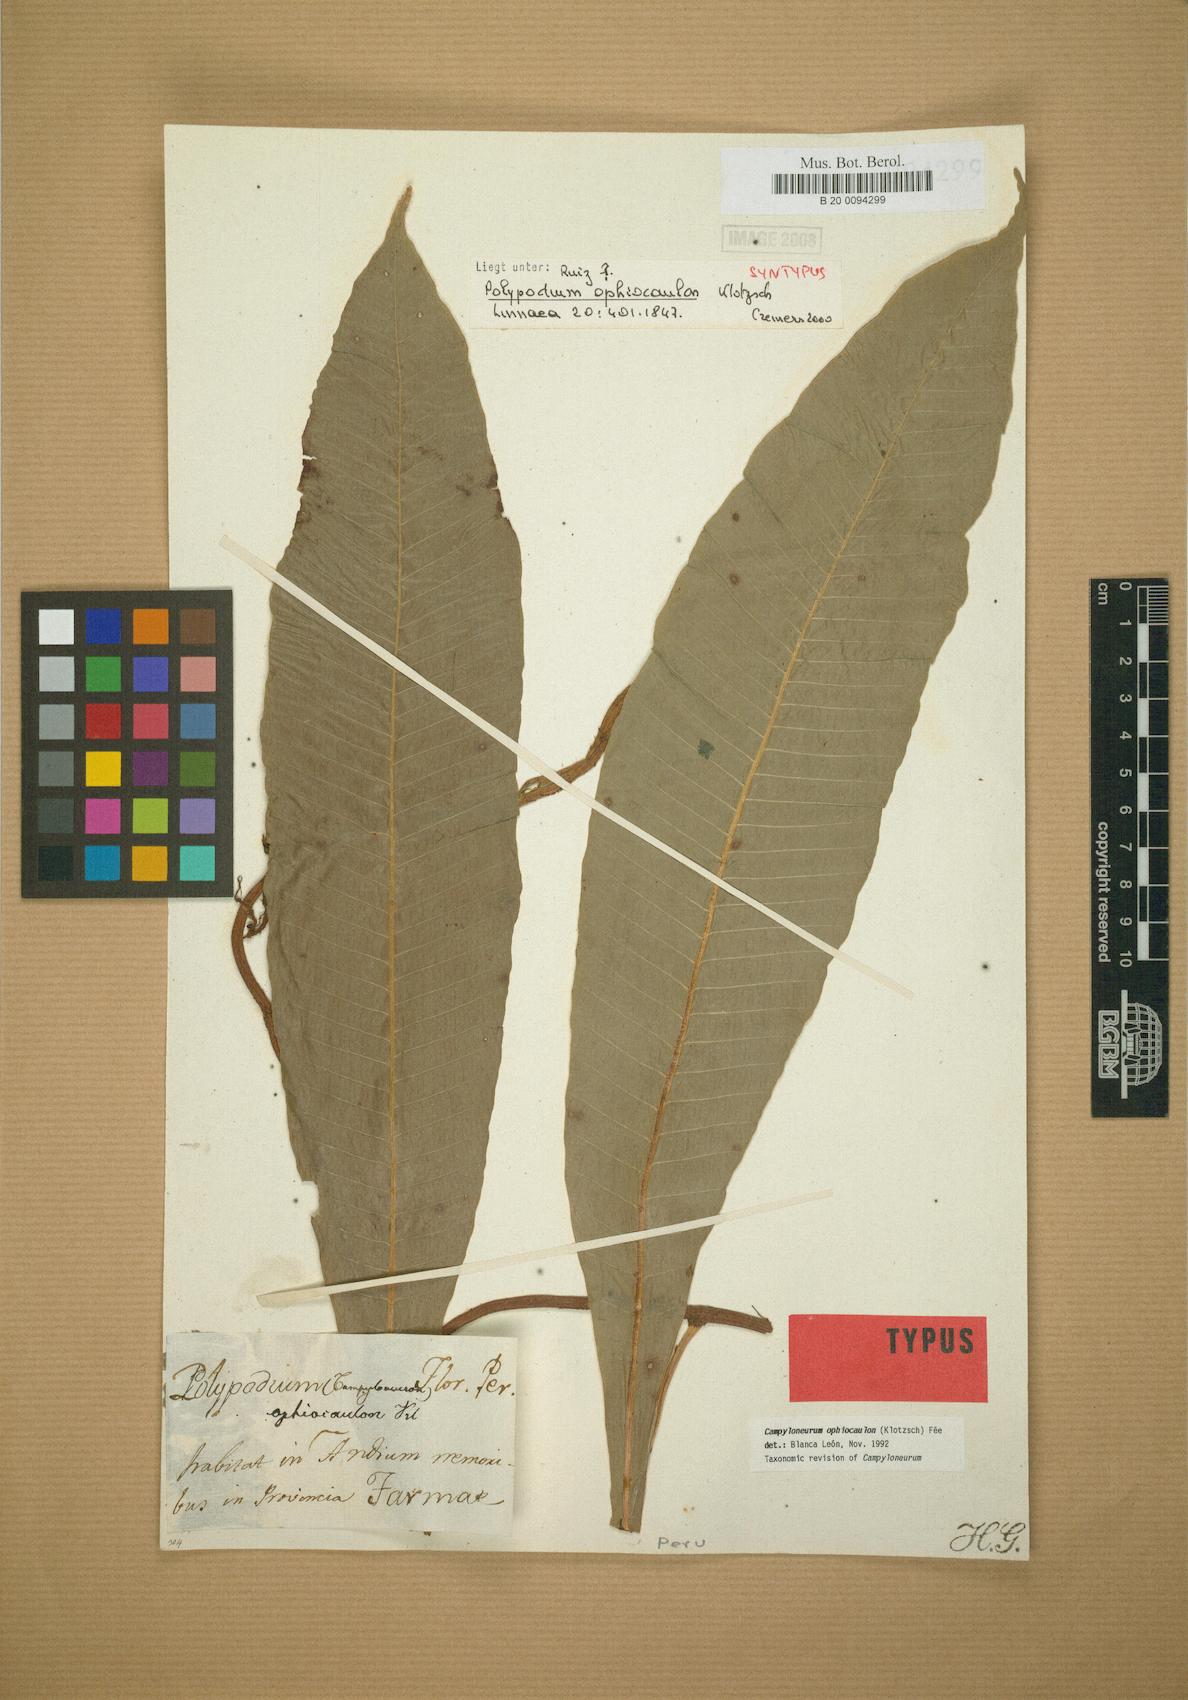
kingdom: Plantae
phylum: Tracheophyta
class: Polypodiopsida
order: Polypodiales
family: Polypodiaceae
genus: Campyloneurum
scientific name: Campyloneurum ophiocaulon
